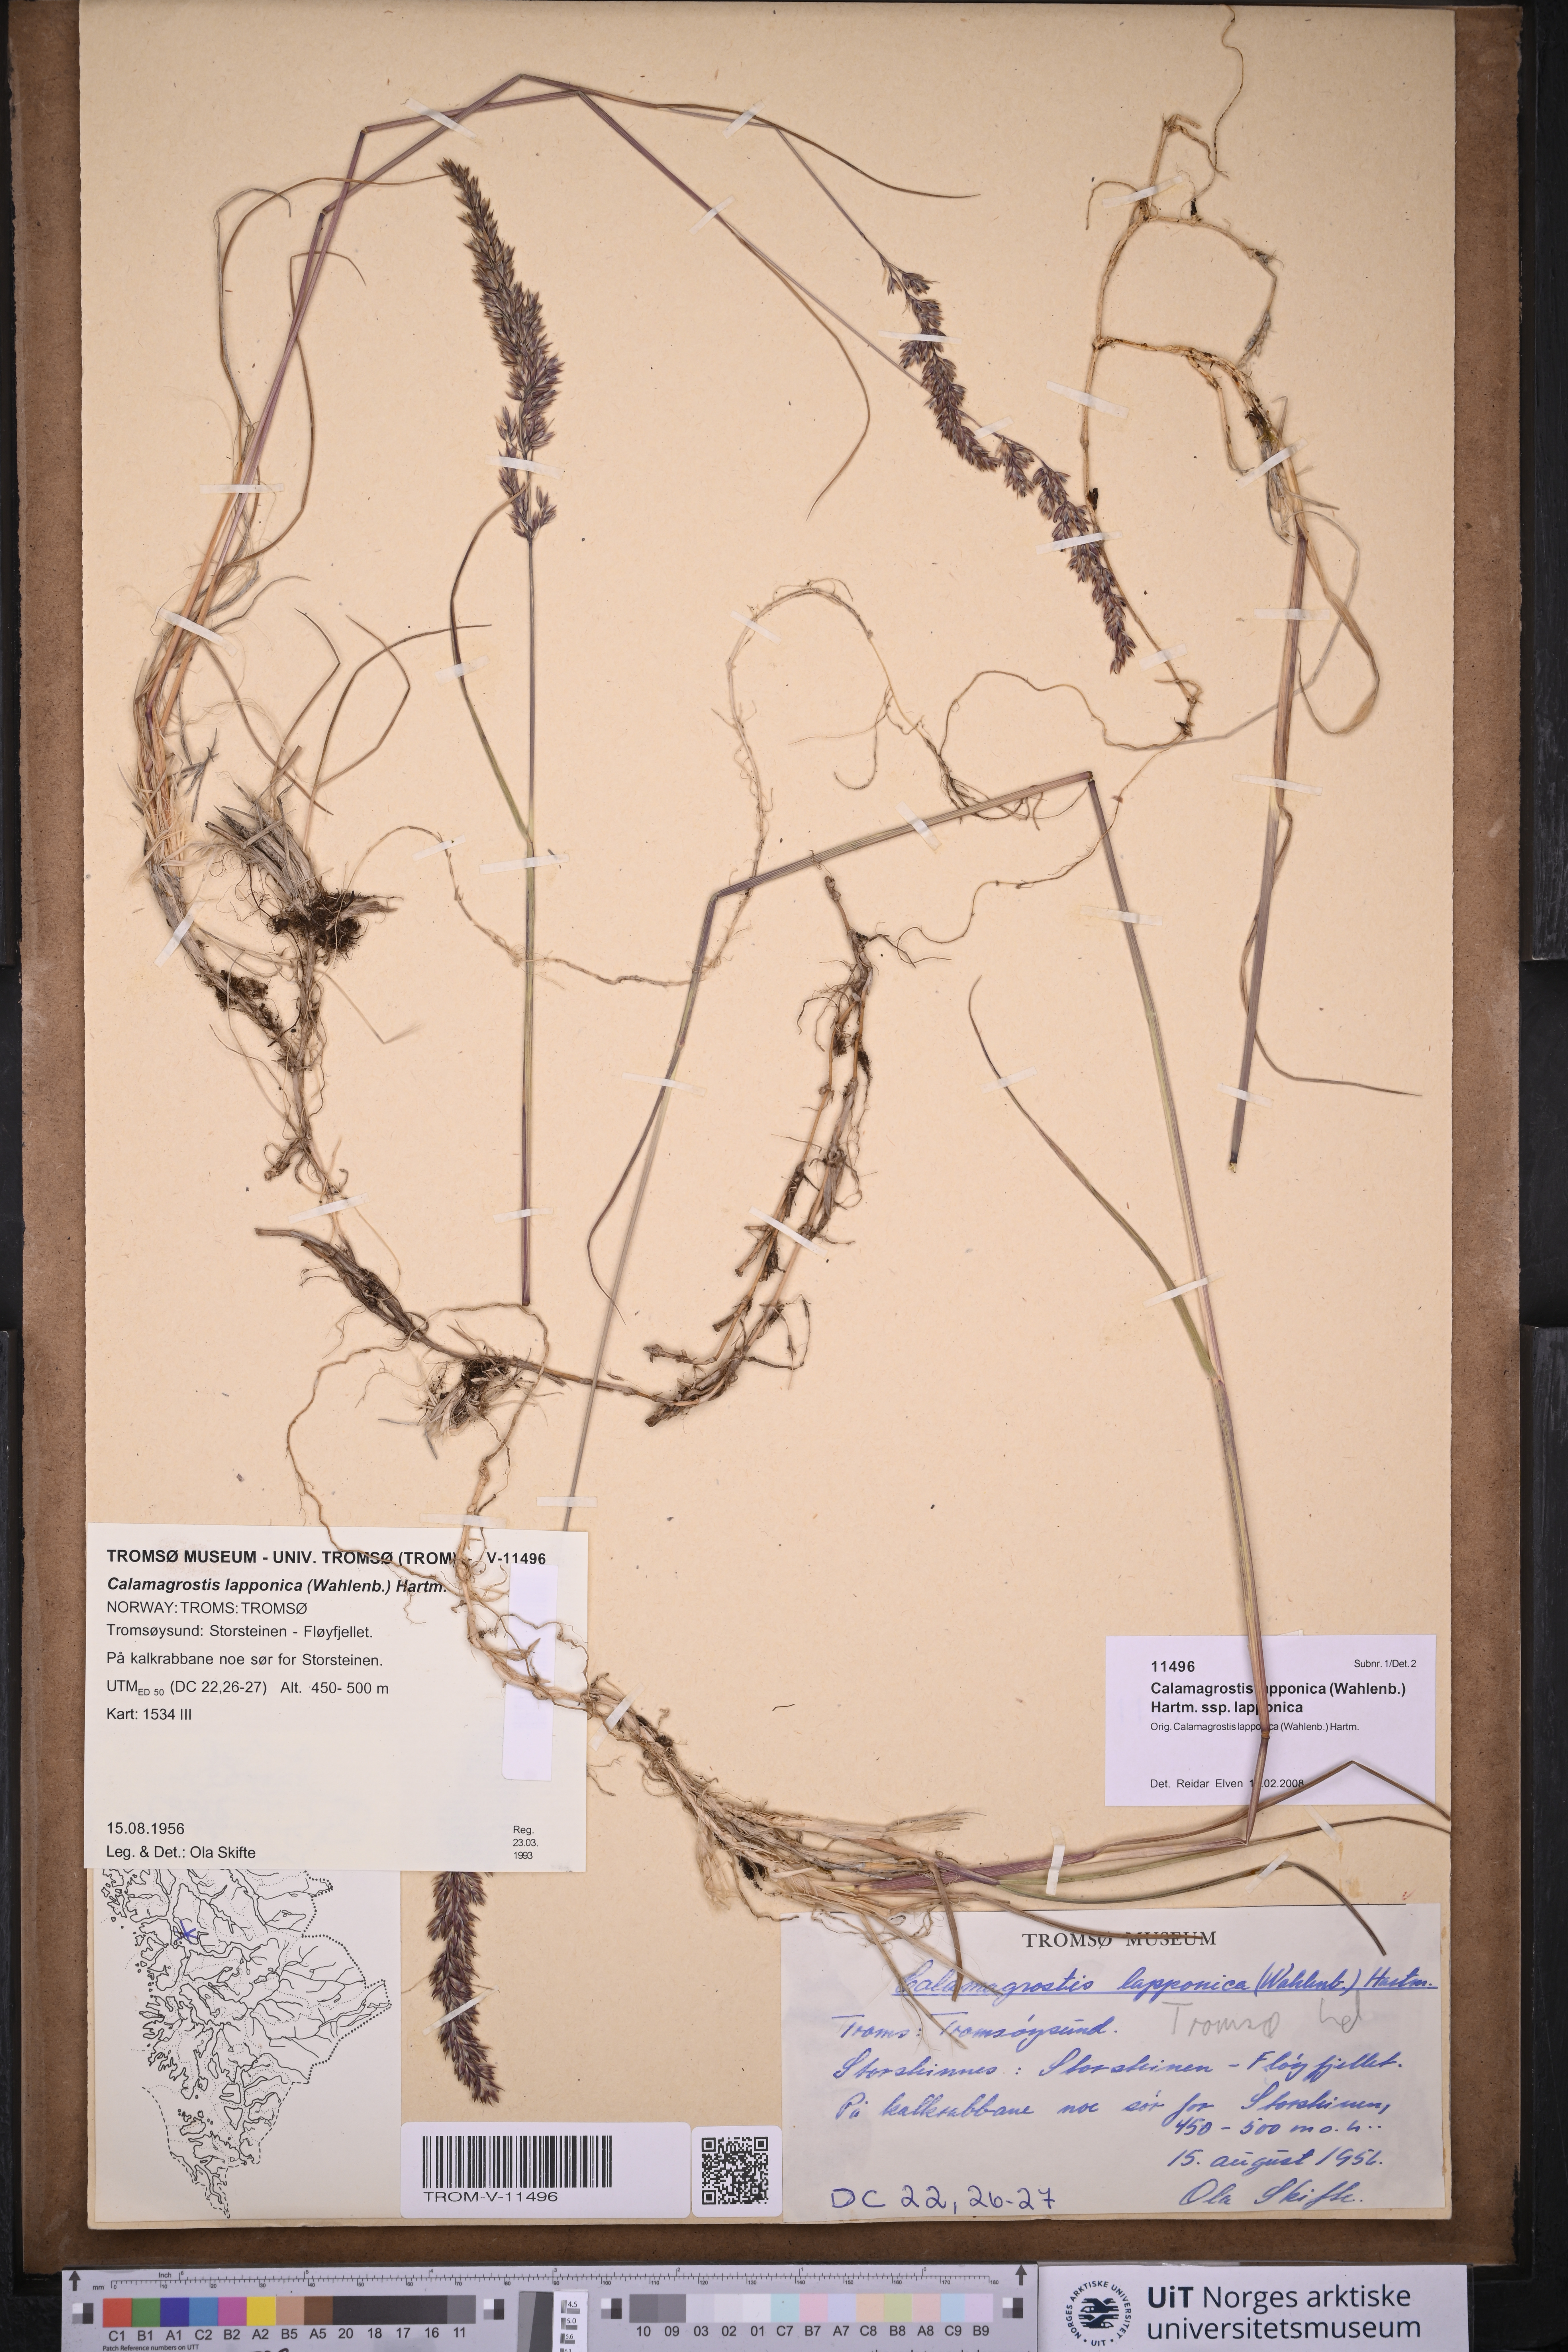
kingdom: Plantae
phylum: Tracheophyta
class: Liliopsida
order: Poales
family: Poaceae
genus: Calamagrostis
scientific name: Calamagrostis lapponica
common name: Lapland reedgrass
